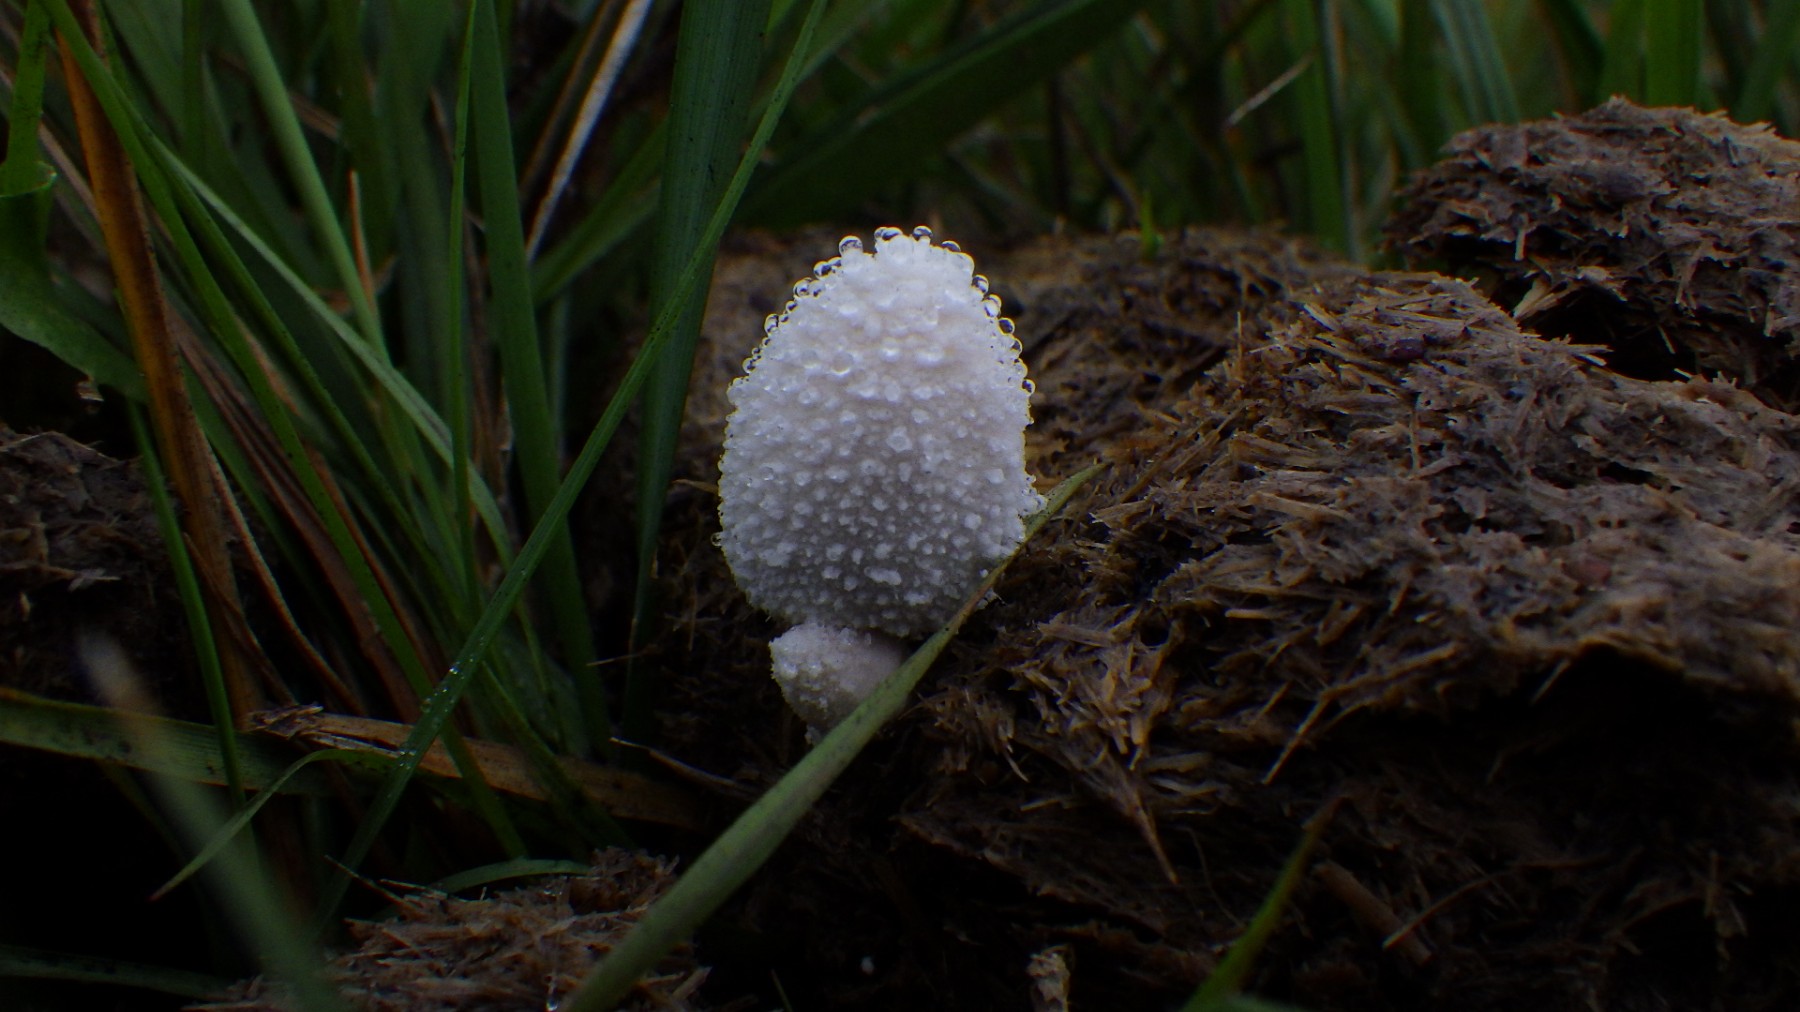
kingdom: Fungi
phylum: Basidiomycota
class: Agaricomycetes
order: Agaricales
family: Psathyrellaceae
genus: Coprinopsis
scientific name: Coprinopsis nivea
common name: snehvid blækhat
